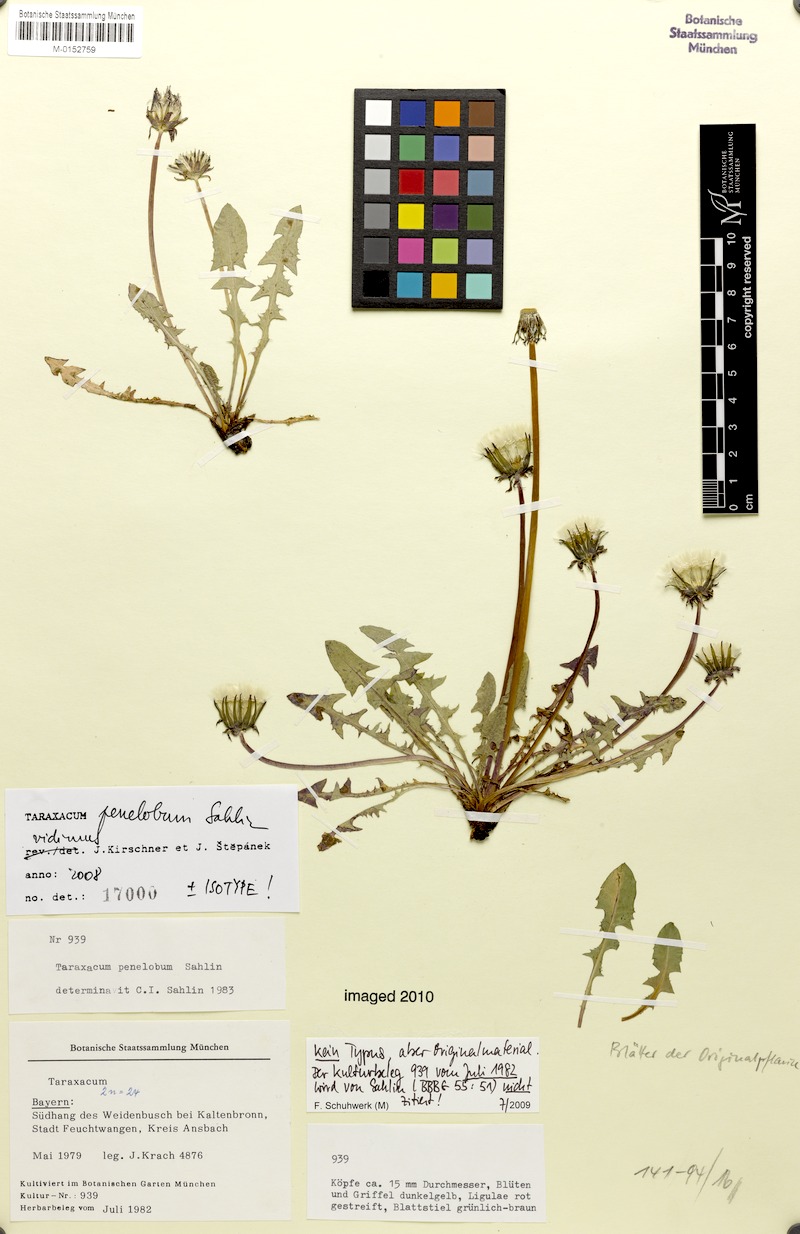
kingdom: Plantae
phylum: Tracheophyta
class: Magnoliopsida
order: Asterales
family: Asteraceae
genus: Taraxacum
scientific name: Taraxacum penelobum
